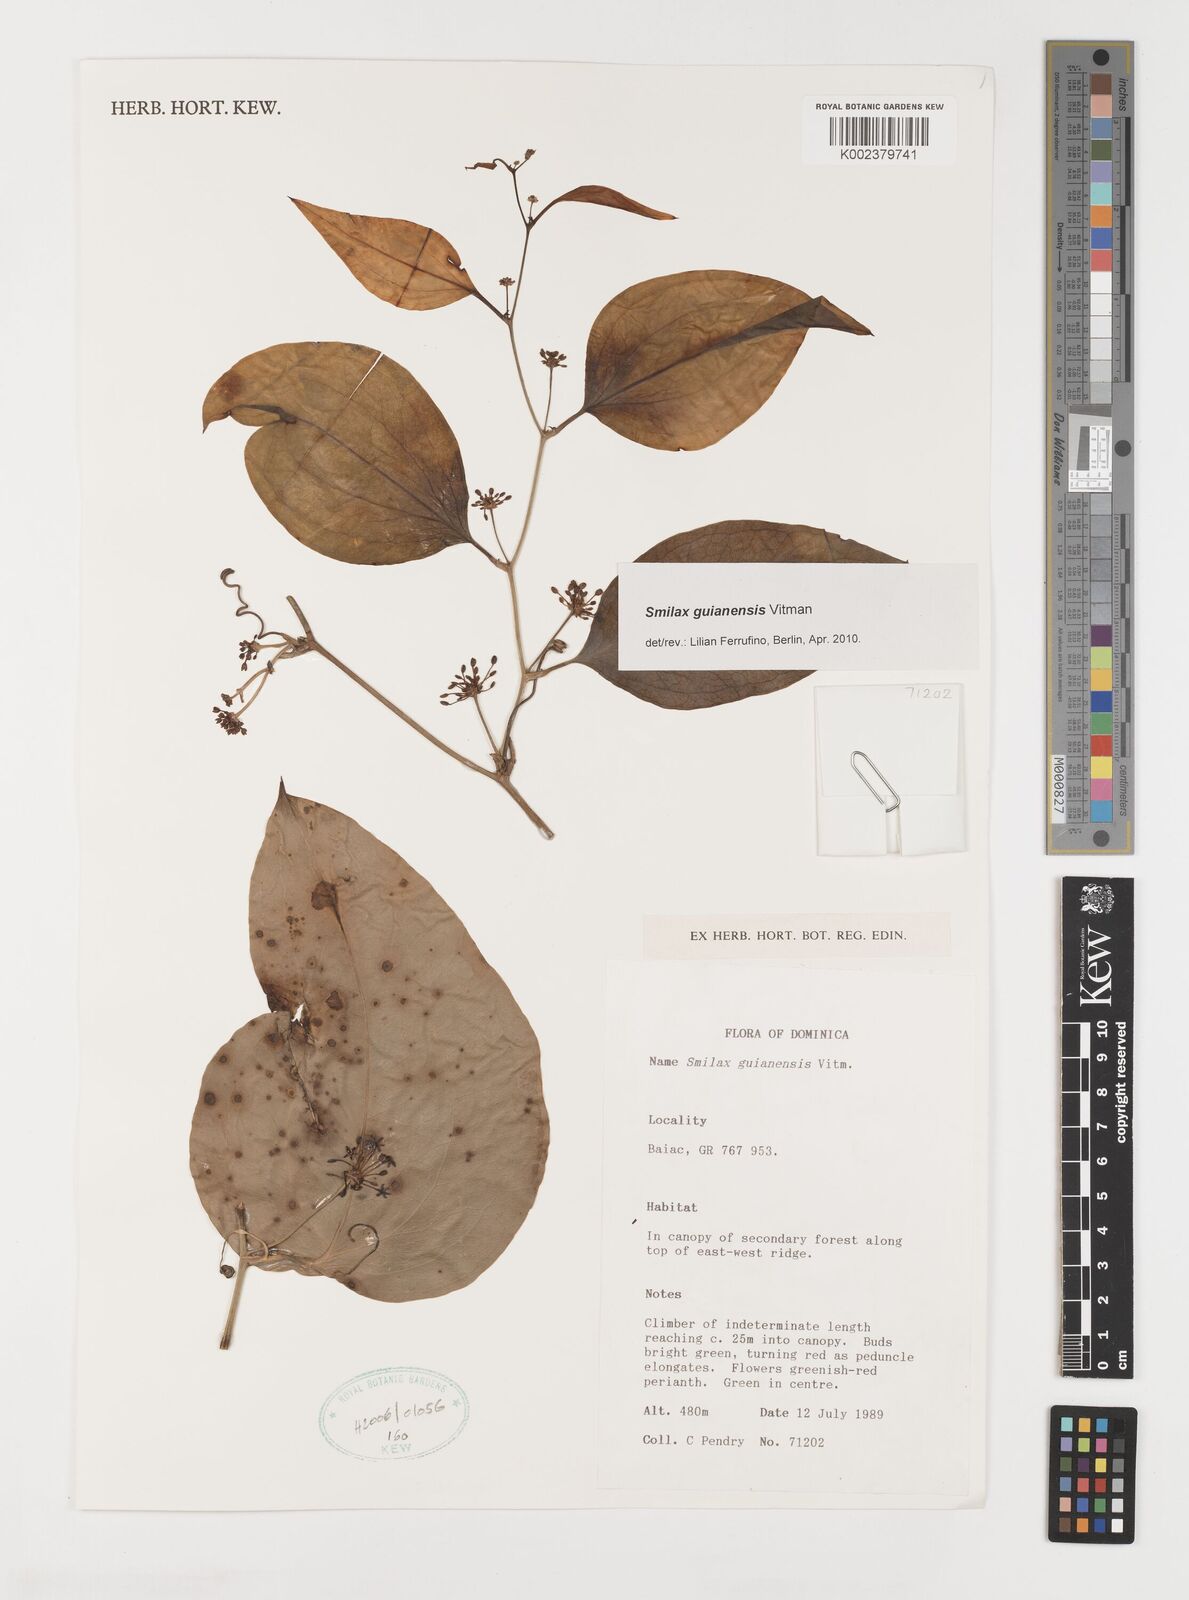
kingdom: Plantae
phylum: Tracheophyta
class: Liliopsida
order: Liliales
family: Smilacaceae
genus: Smilax
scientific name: Smilax guianensis
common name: Basket hoop
